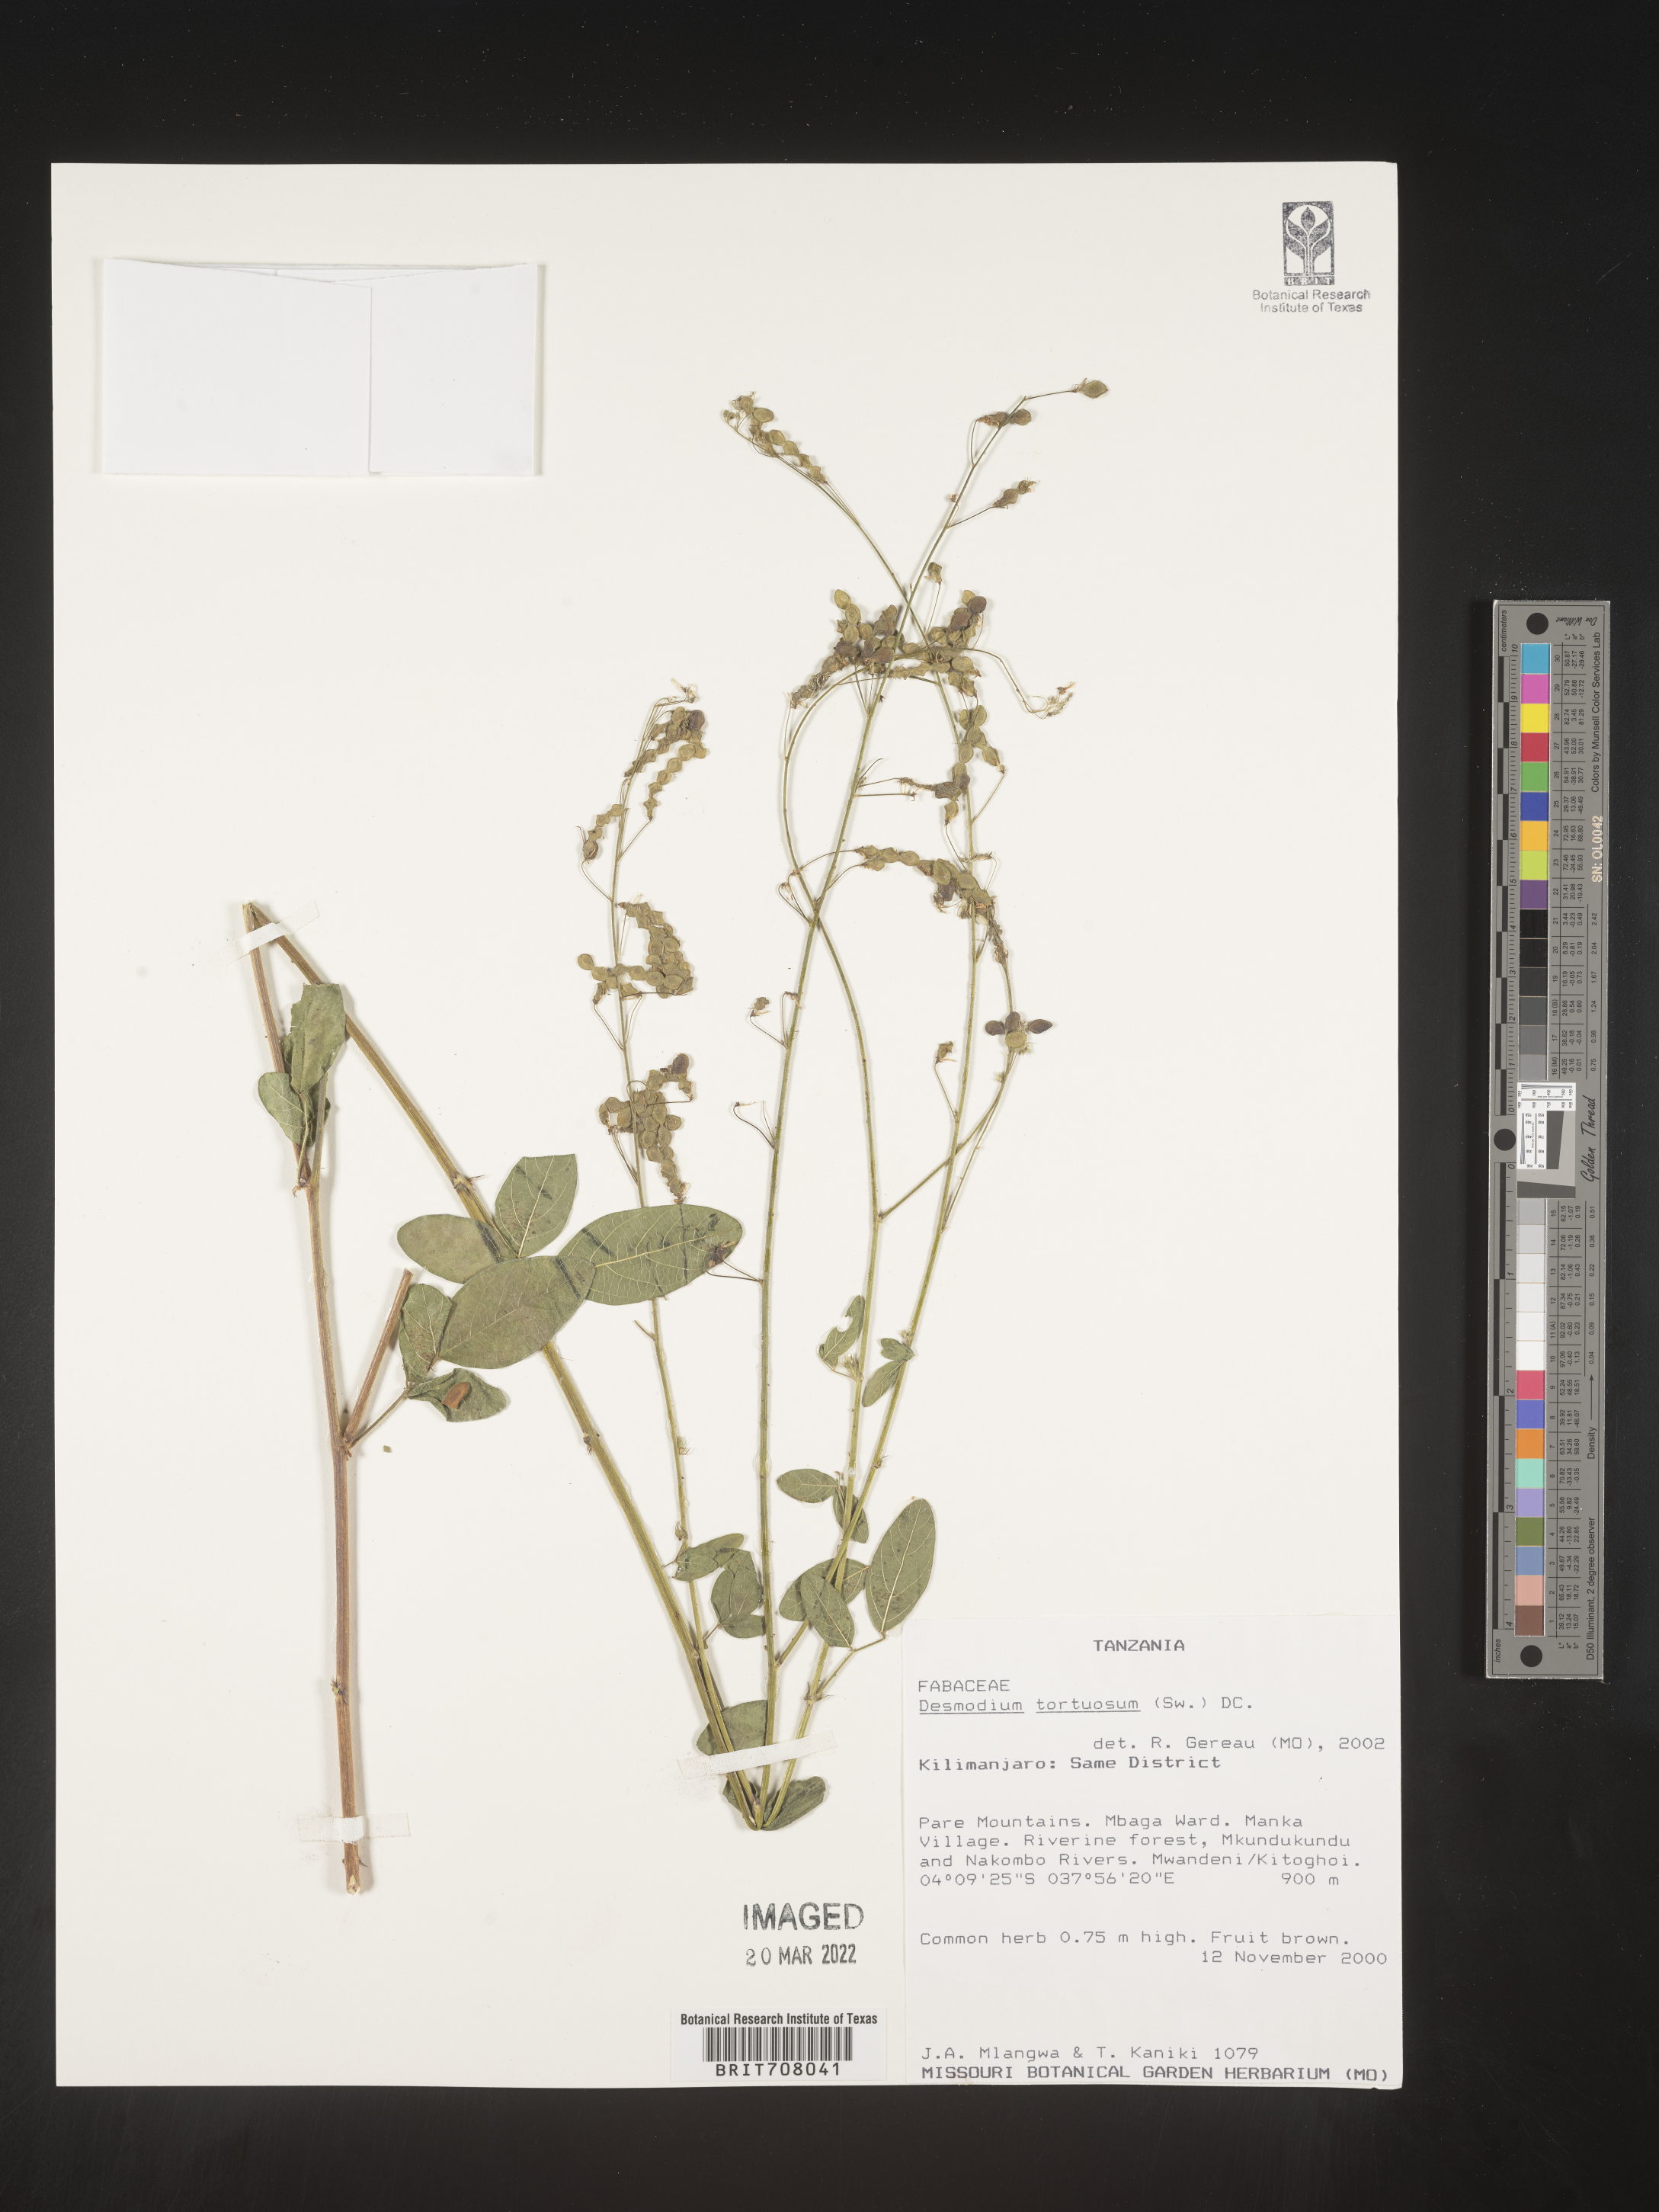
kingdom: Plantae
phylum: Tracheophyta
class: Magnoliopsida
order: Fabales
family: Fabaceae
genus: Desmodium
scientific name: Desmodium
